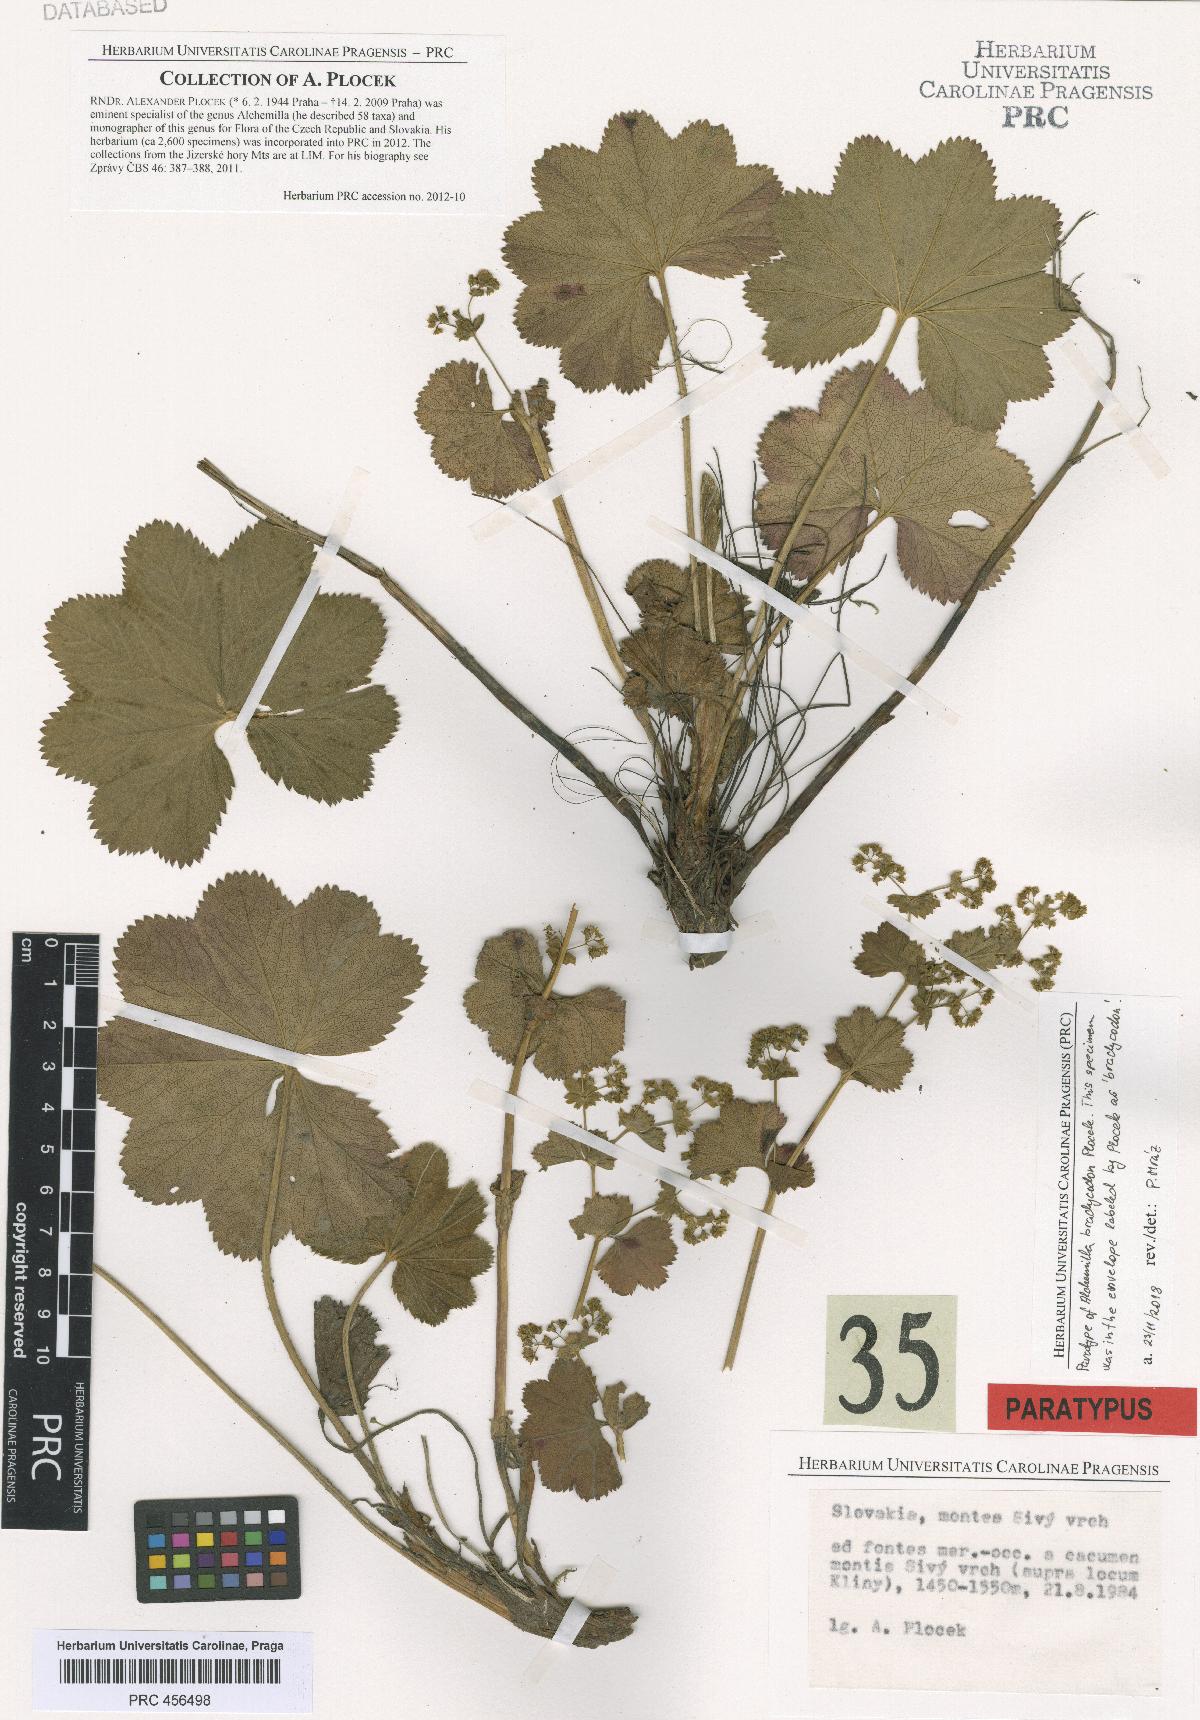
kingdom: Plantae
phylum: Tracheophyta
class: Magnoliopsida
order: Rosales
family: Rosaceae
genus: Alchemilla
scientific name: Alchemilla brachycodon
